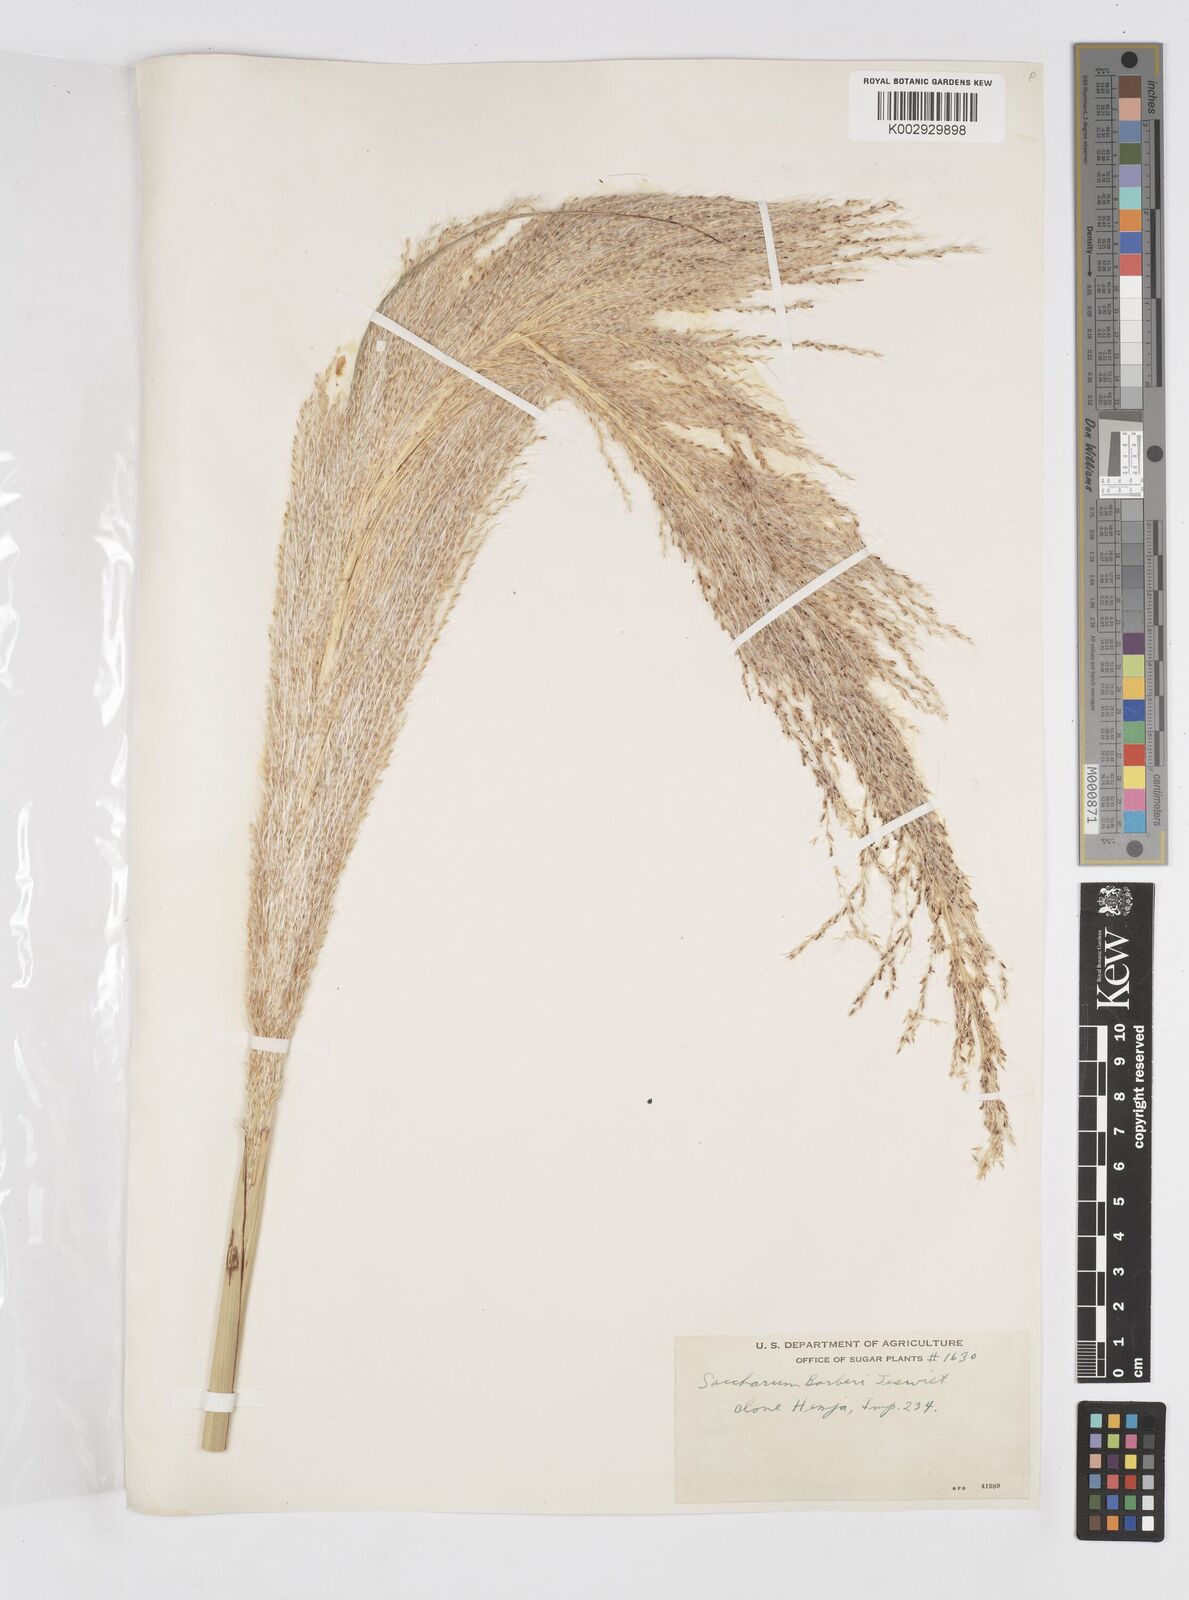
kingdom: Plantae
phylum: Tracheophyta
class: Liliopsida
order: Poales
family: Poaceae
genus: Saccharum
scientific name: Saccharum officinarum
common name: Sugarcane
